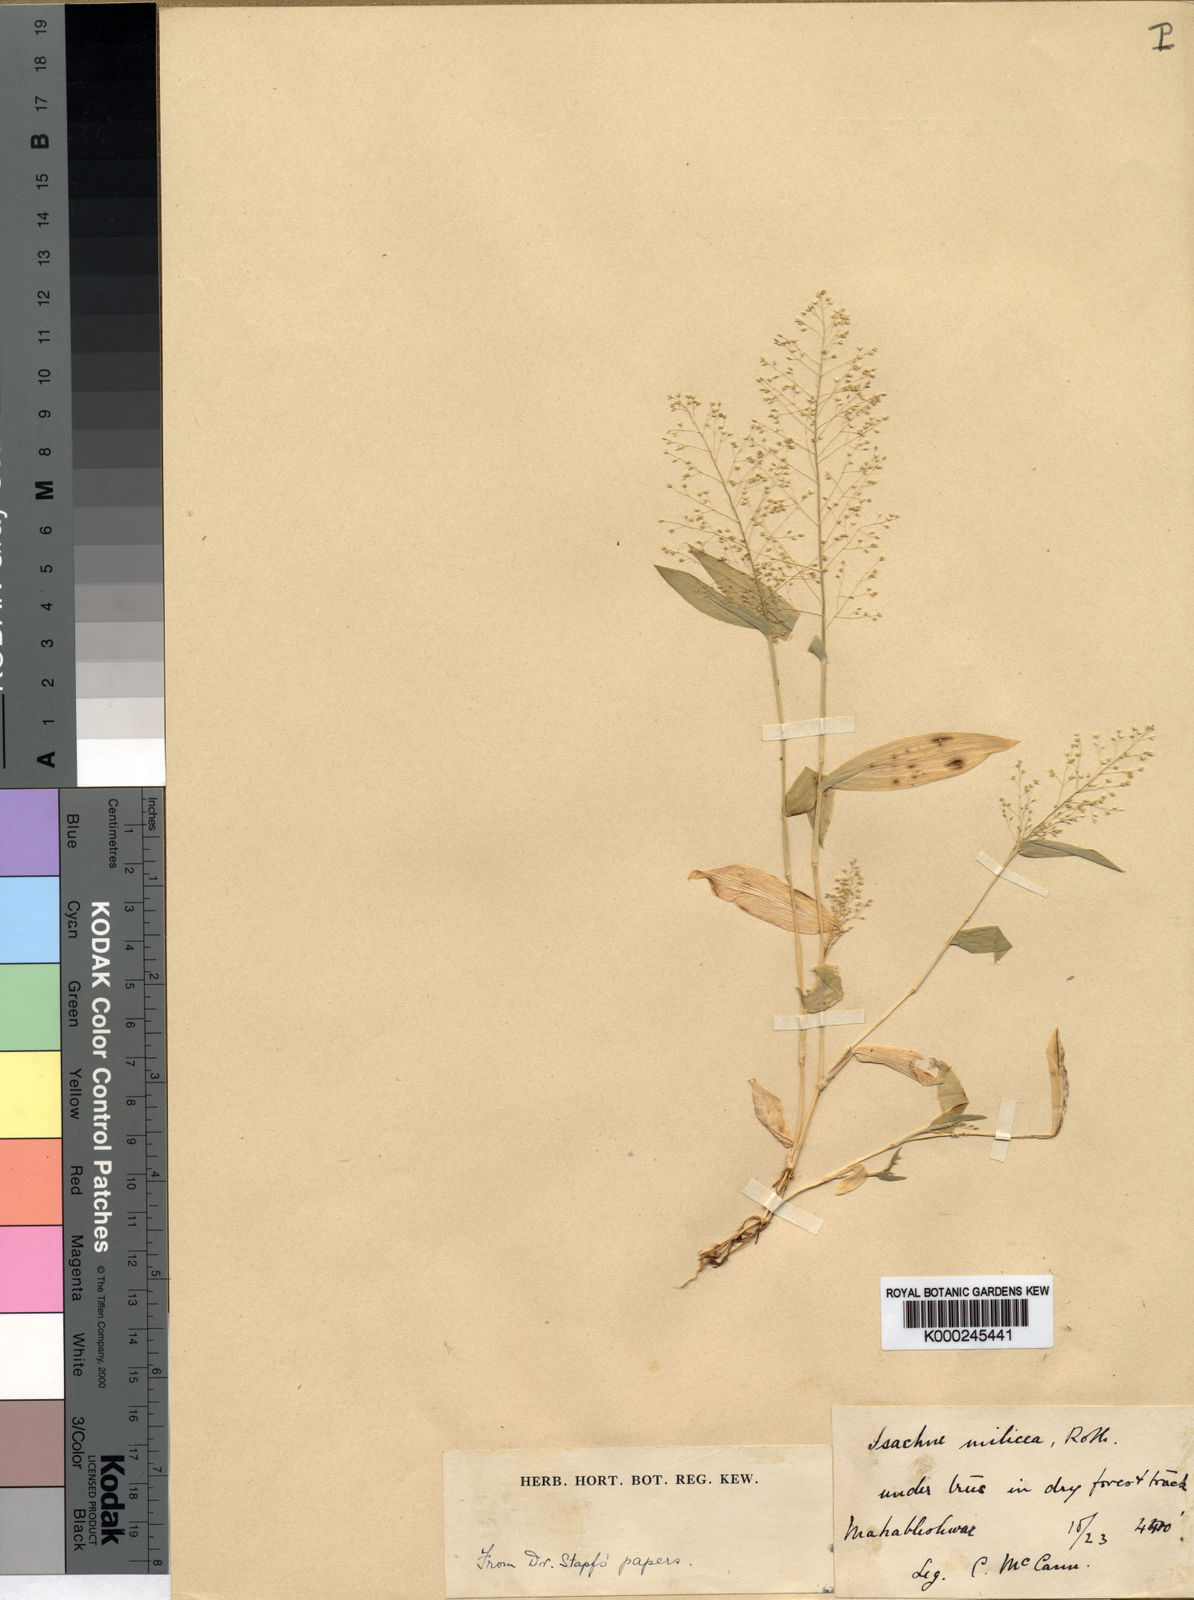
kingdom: Plantae
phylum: Tracheophyta
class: Liliopsida
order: Poales
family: Poaceae
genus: Isachne
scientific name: Isachne gracilis
